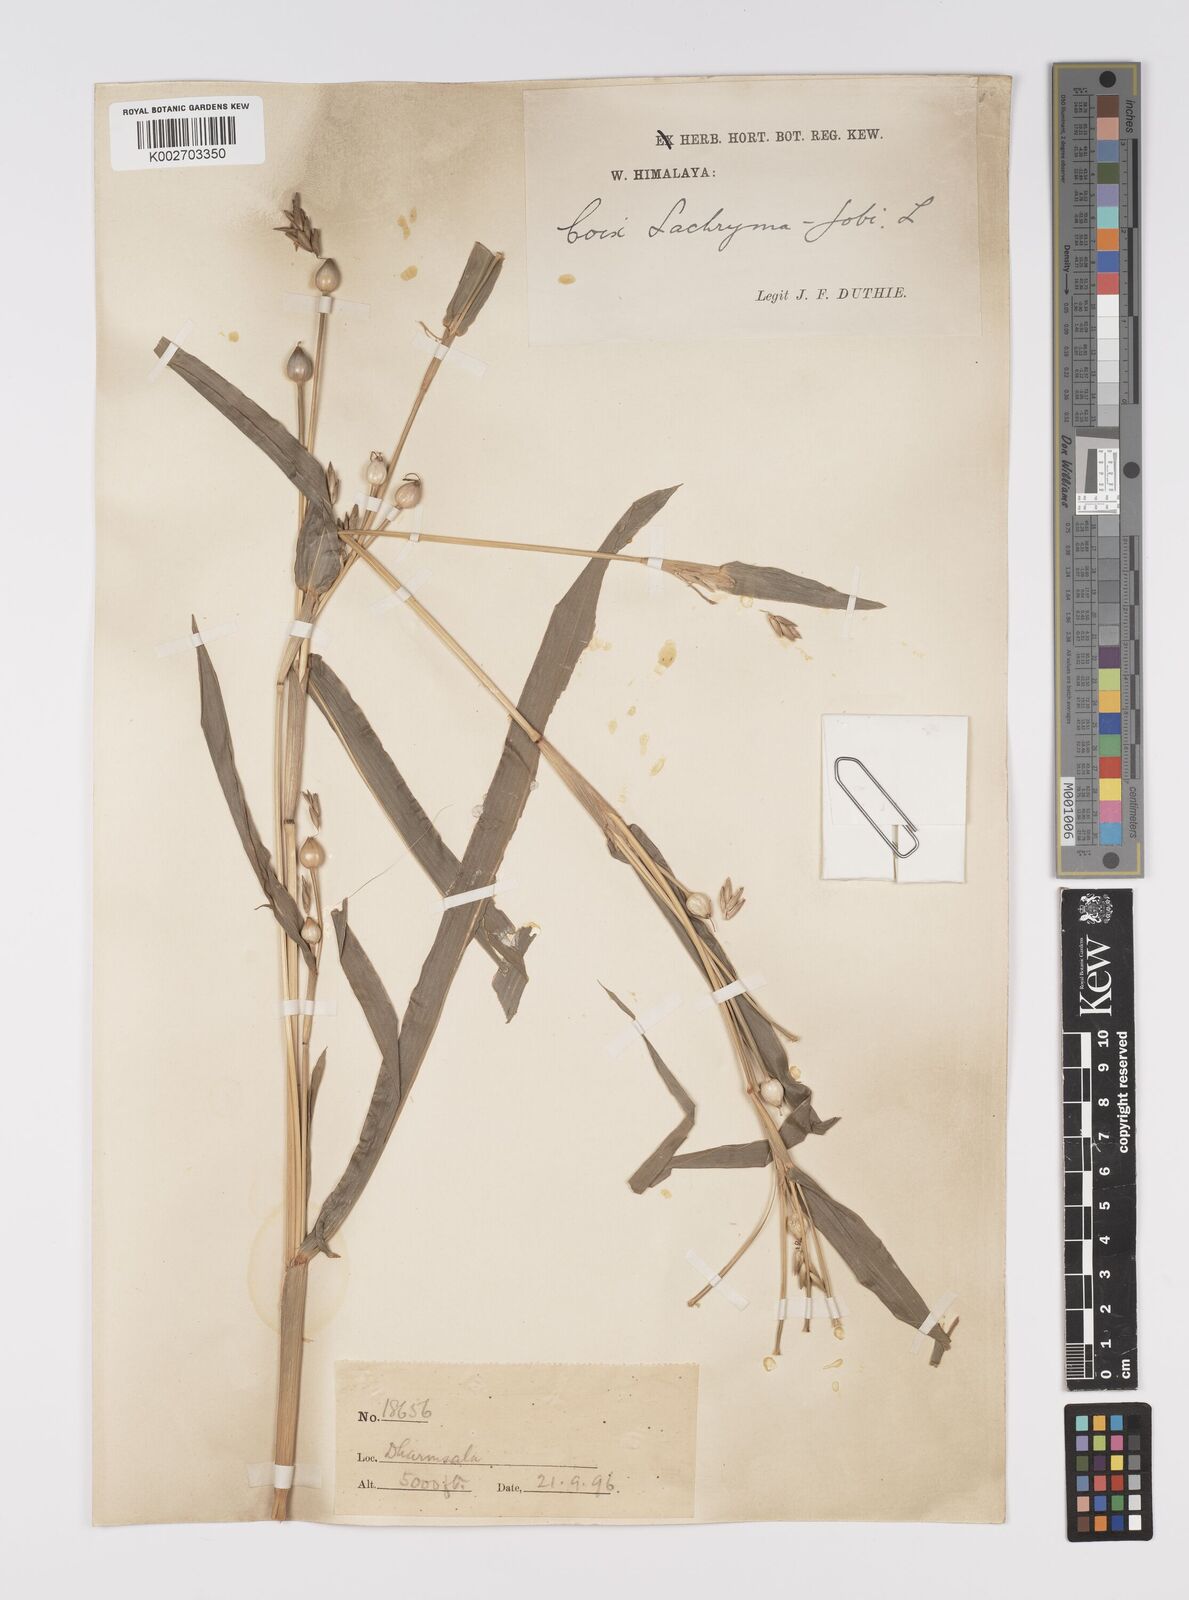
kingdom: Plantae
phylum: Tracheophyta
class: Liliopsida
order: Poales
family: Poaceae
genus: Coix
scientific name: Coix lacryma-jobi
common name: Job's tears
